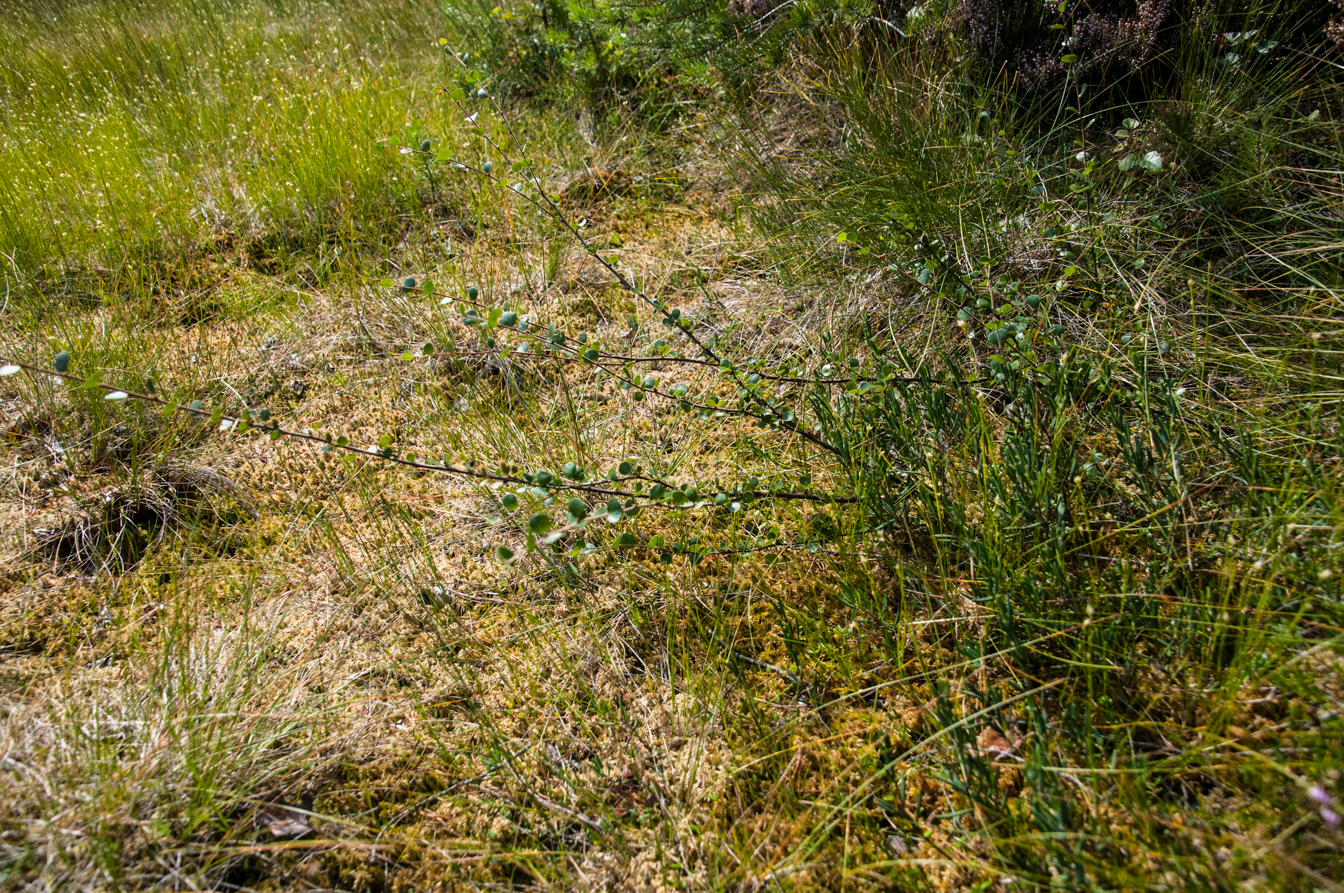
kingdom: Plantae
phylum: Tracheophyta
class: Magnoliopsida
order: Fagales
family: Betulaceae
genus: Betula
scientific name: Betula nana
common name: Arctic dwarf birch
